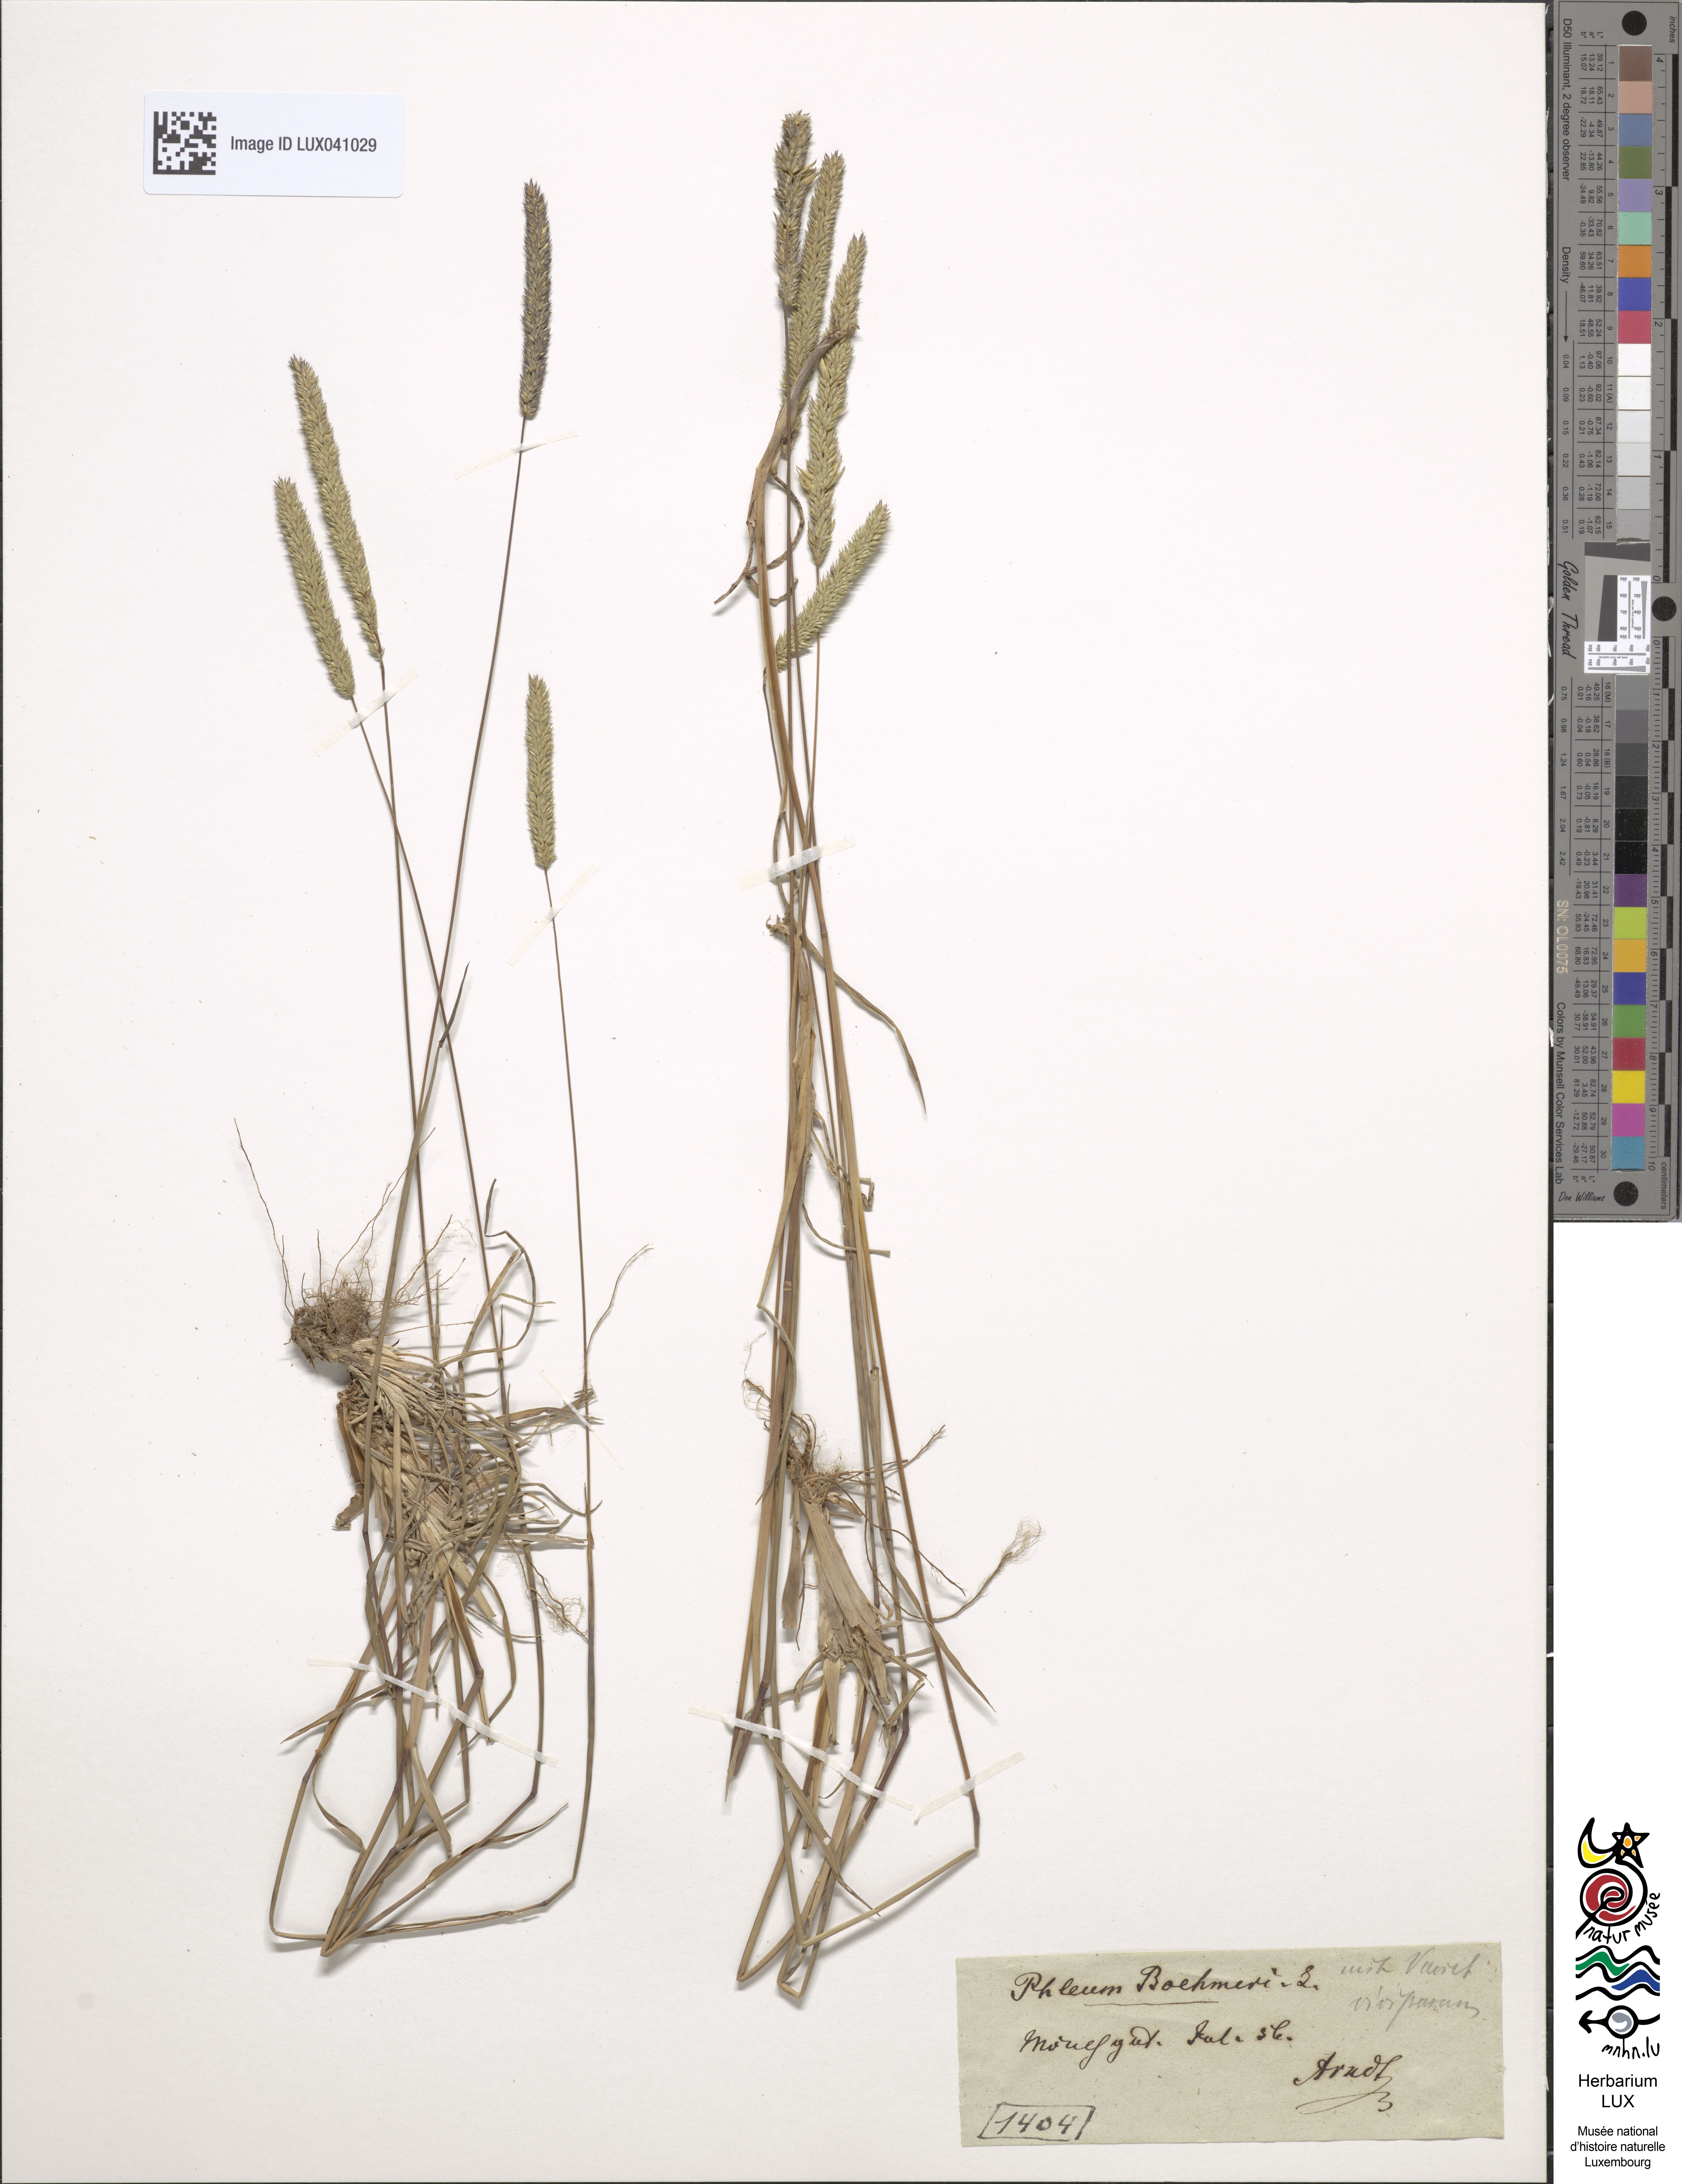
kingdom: Plantae
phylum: Tracheophyta
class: Liliopsida
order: Poales
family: Poaceae
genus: Phleum
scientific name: Phleum phleoides
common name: Purple-stem cat's-tail
